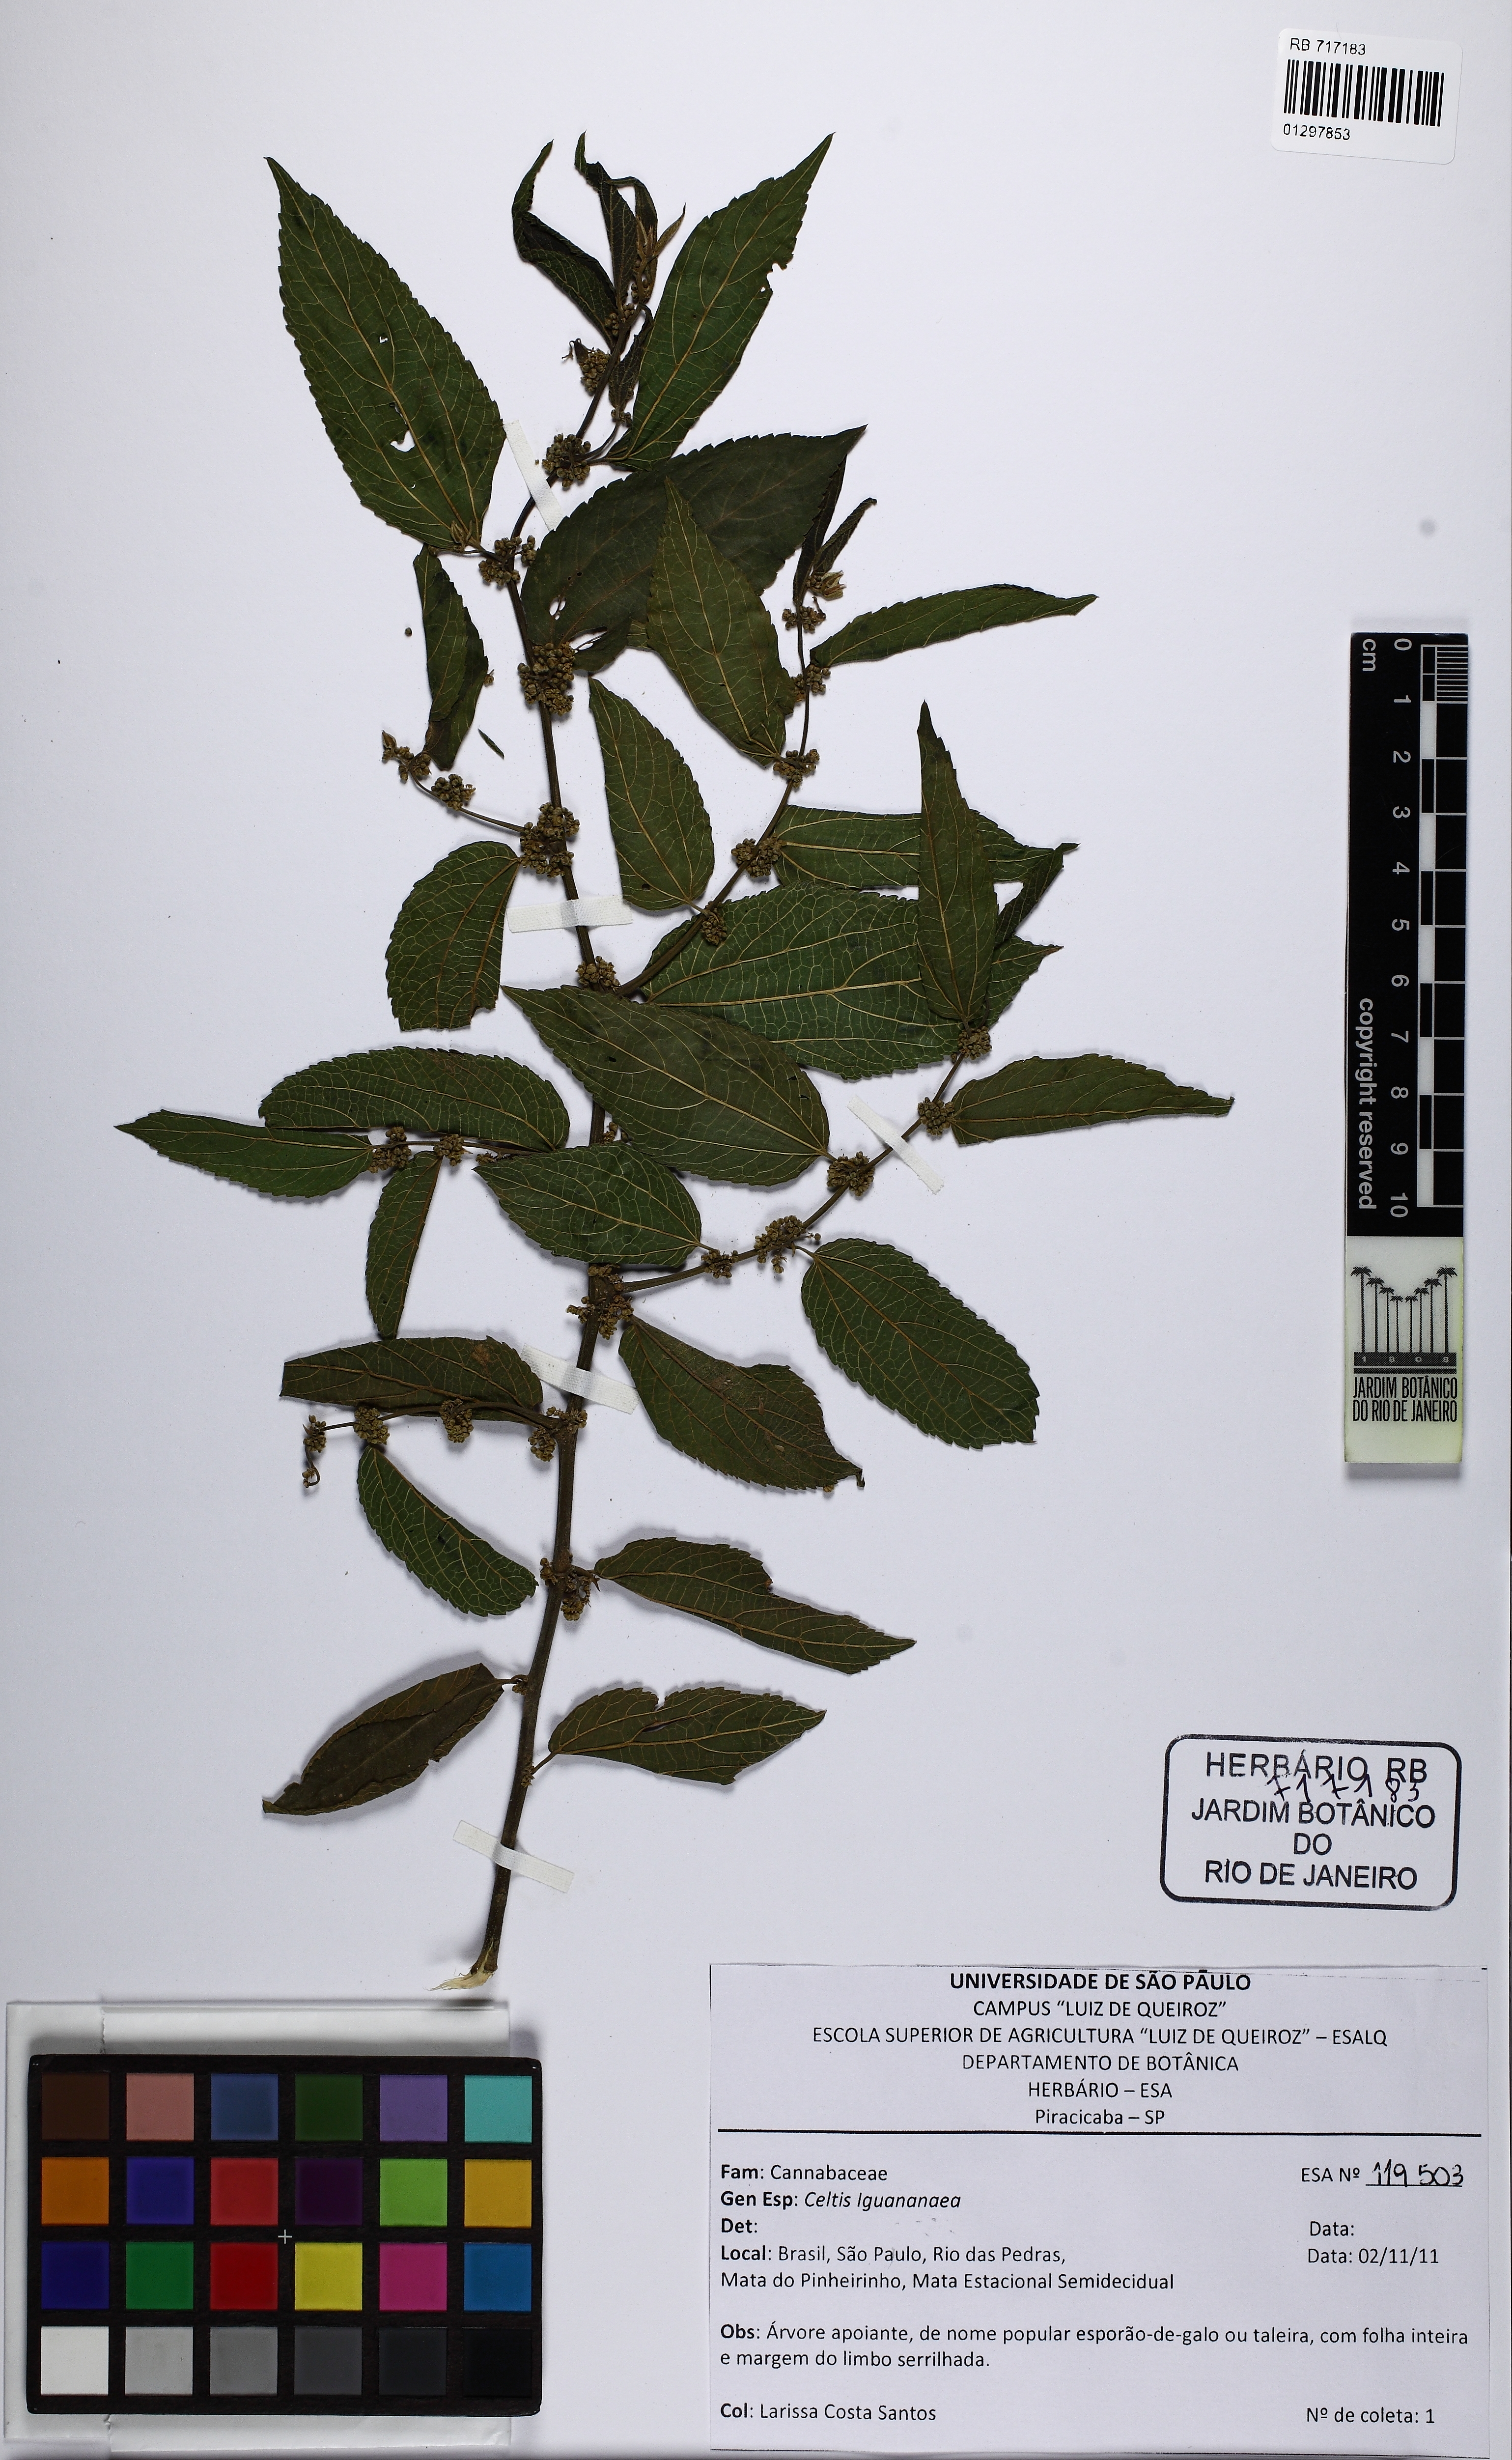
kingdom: Plantae
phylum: Tracheophyta
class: Magnoliopsida
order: Rosales
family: Cannabaceae
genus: Celtis
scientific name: Celtis iguanaea
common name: Iguana hackberry
